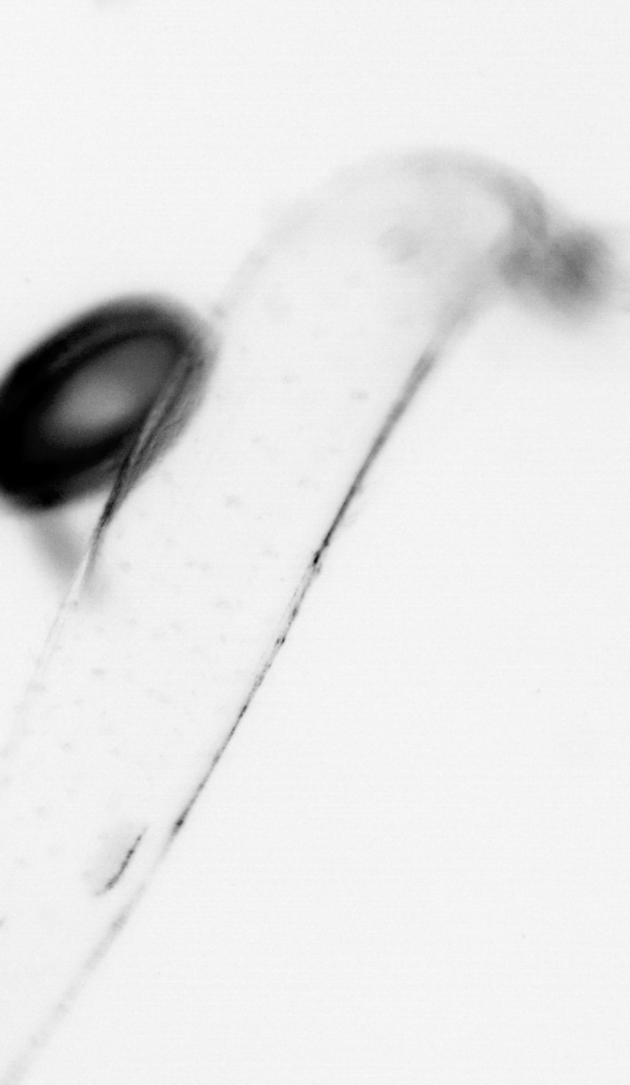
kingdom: Animalia
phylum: Chaetognatha
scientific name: Chaetognatha
